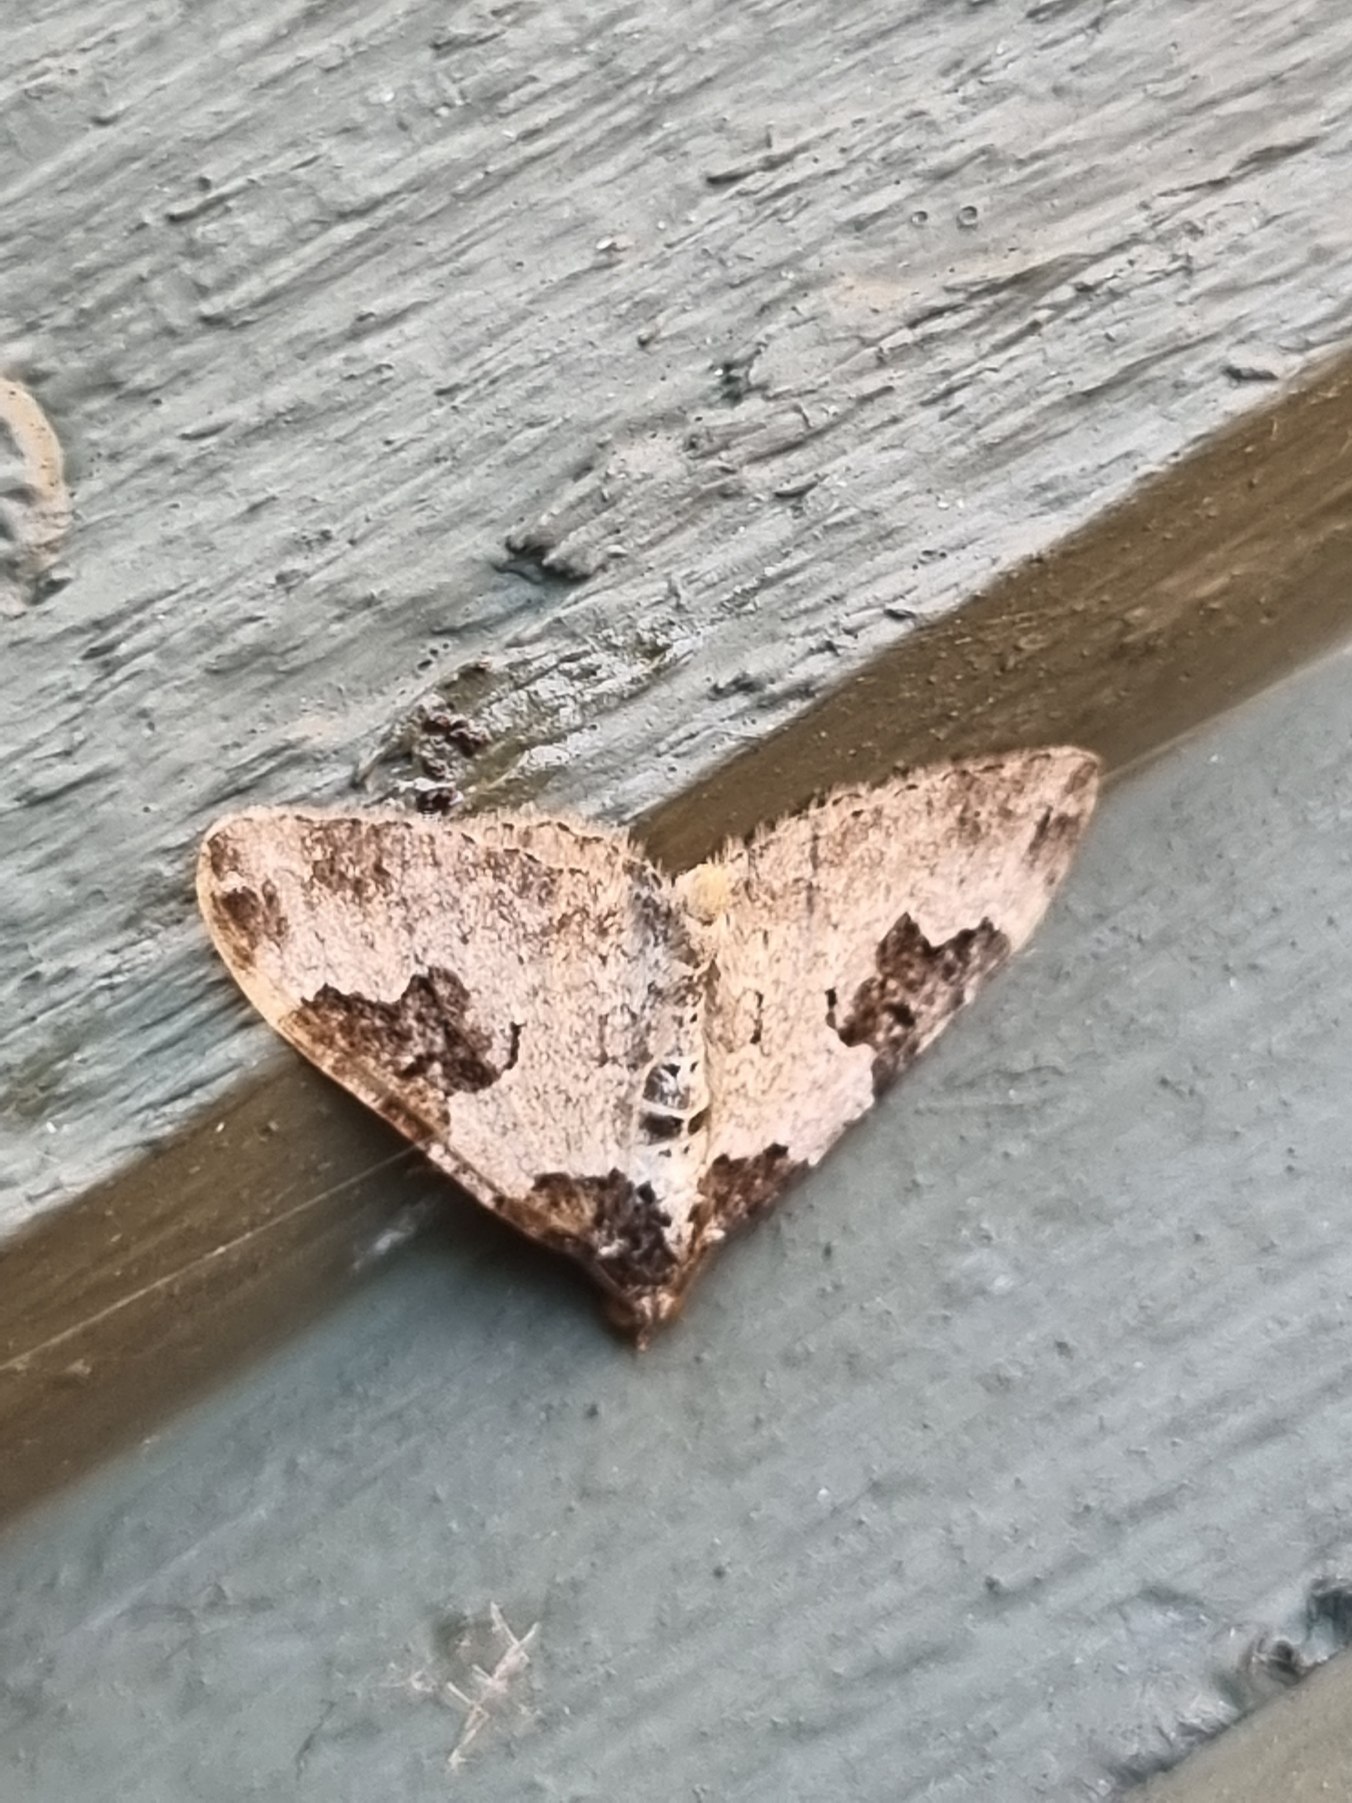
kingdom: Animalia
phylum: Arthropoda
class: Insecta
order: Lepidoptera
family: Geometridae
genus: Xanthorhoe
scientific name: Xanthorhoe fluctuata
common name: Sortbæltet bladmåler
